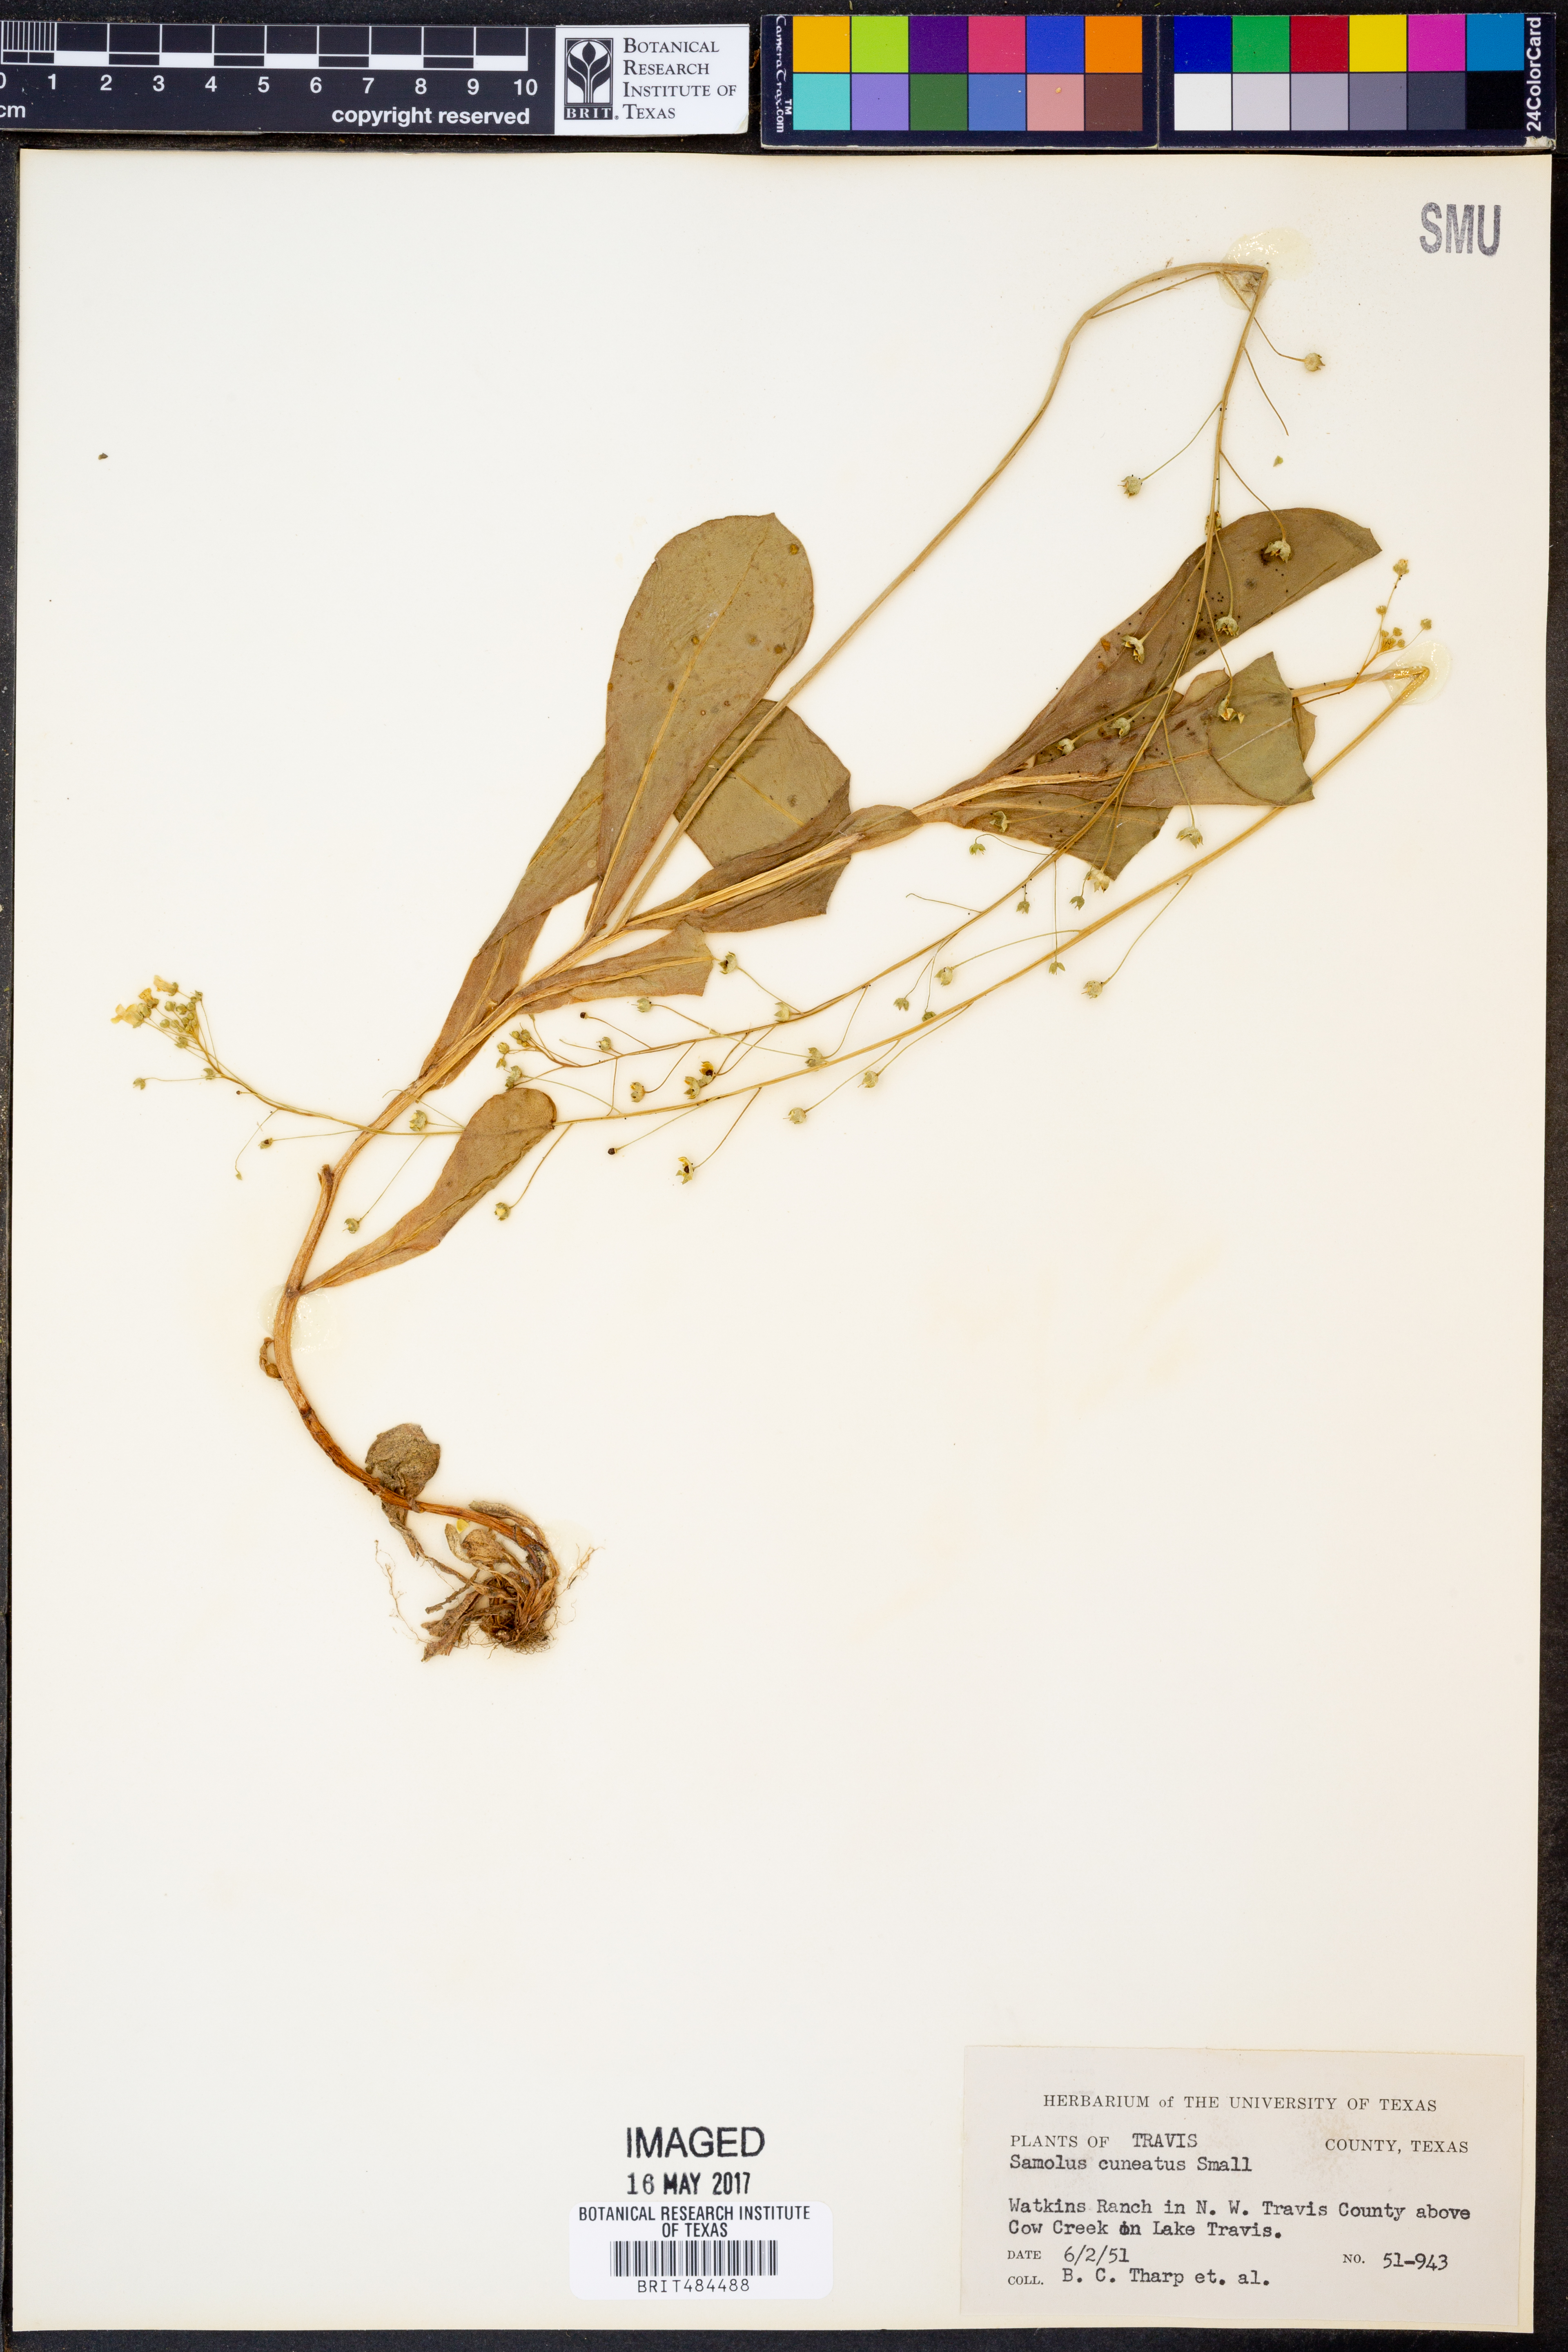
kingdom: Plantae
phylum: Tracheophyta
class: Magnoliopsida
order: Ericales
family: Primulaceae
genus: Samolus
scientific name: Samolus ebracteatus
